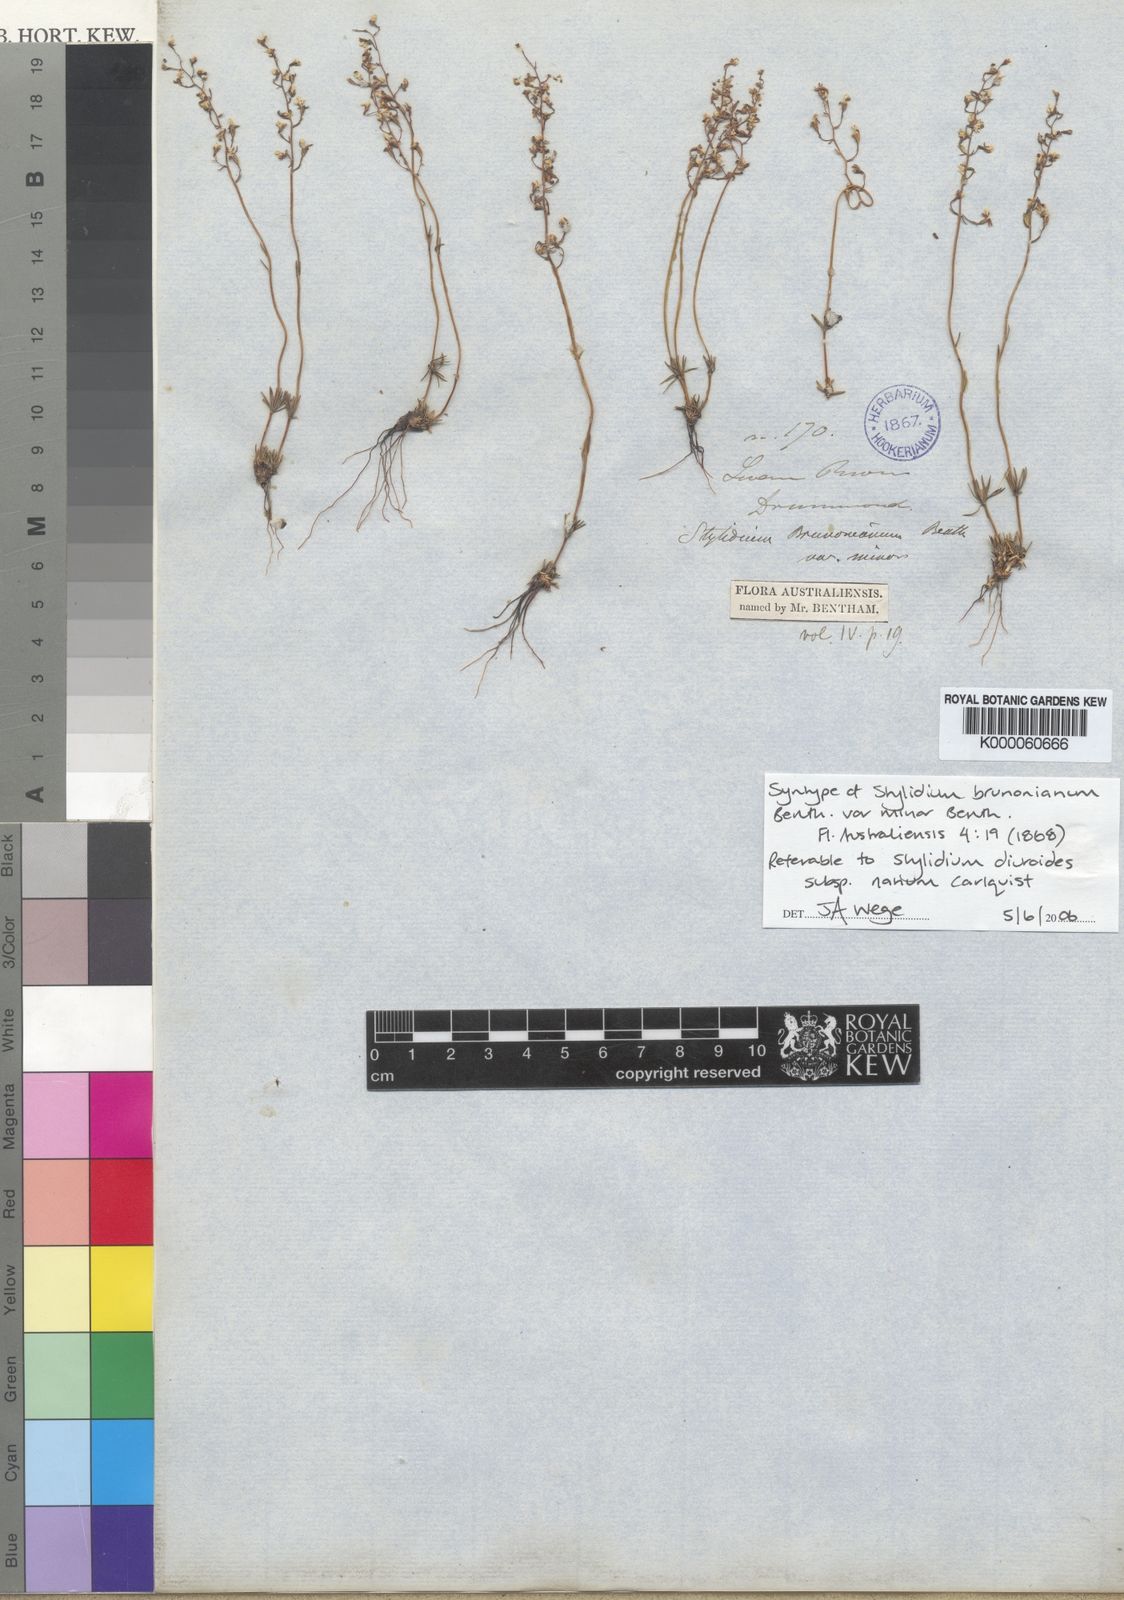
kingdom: Plantae
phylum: Tracheophyta
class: Magnoliopsida
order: Asterales
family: Stylidiaceae
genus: Stylidium
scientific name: Stylidium diuroides
